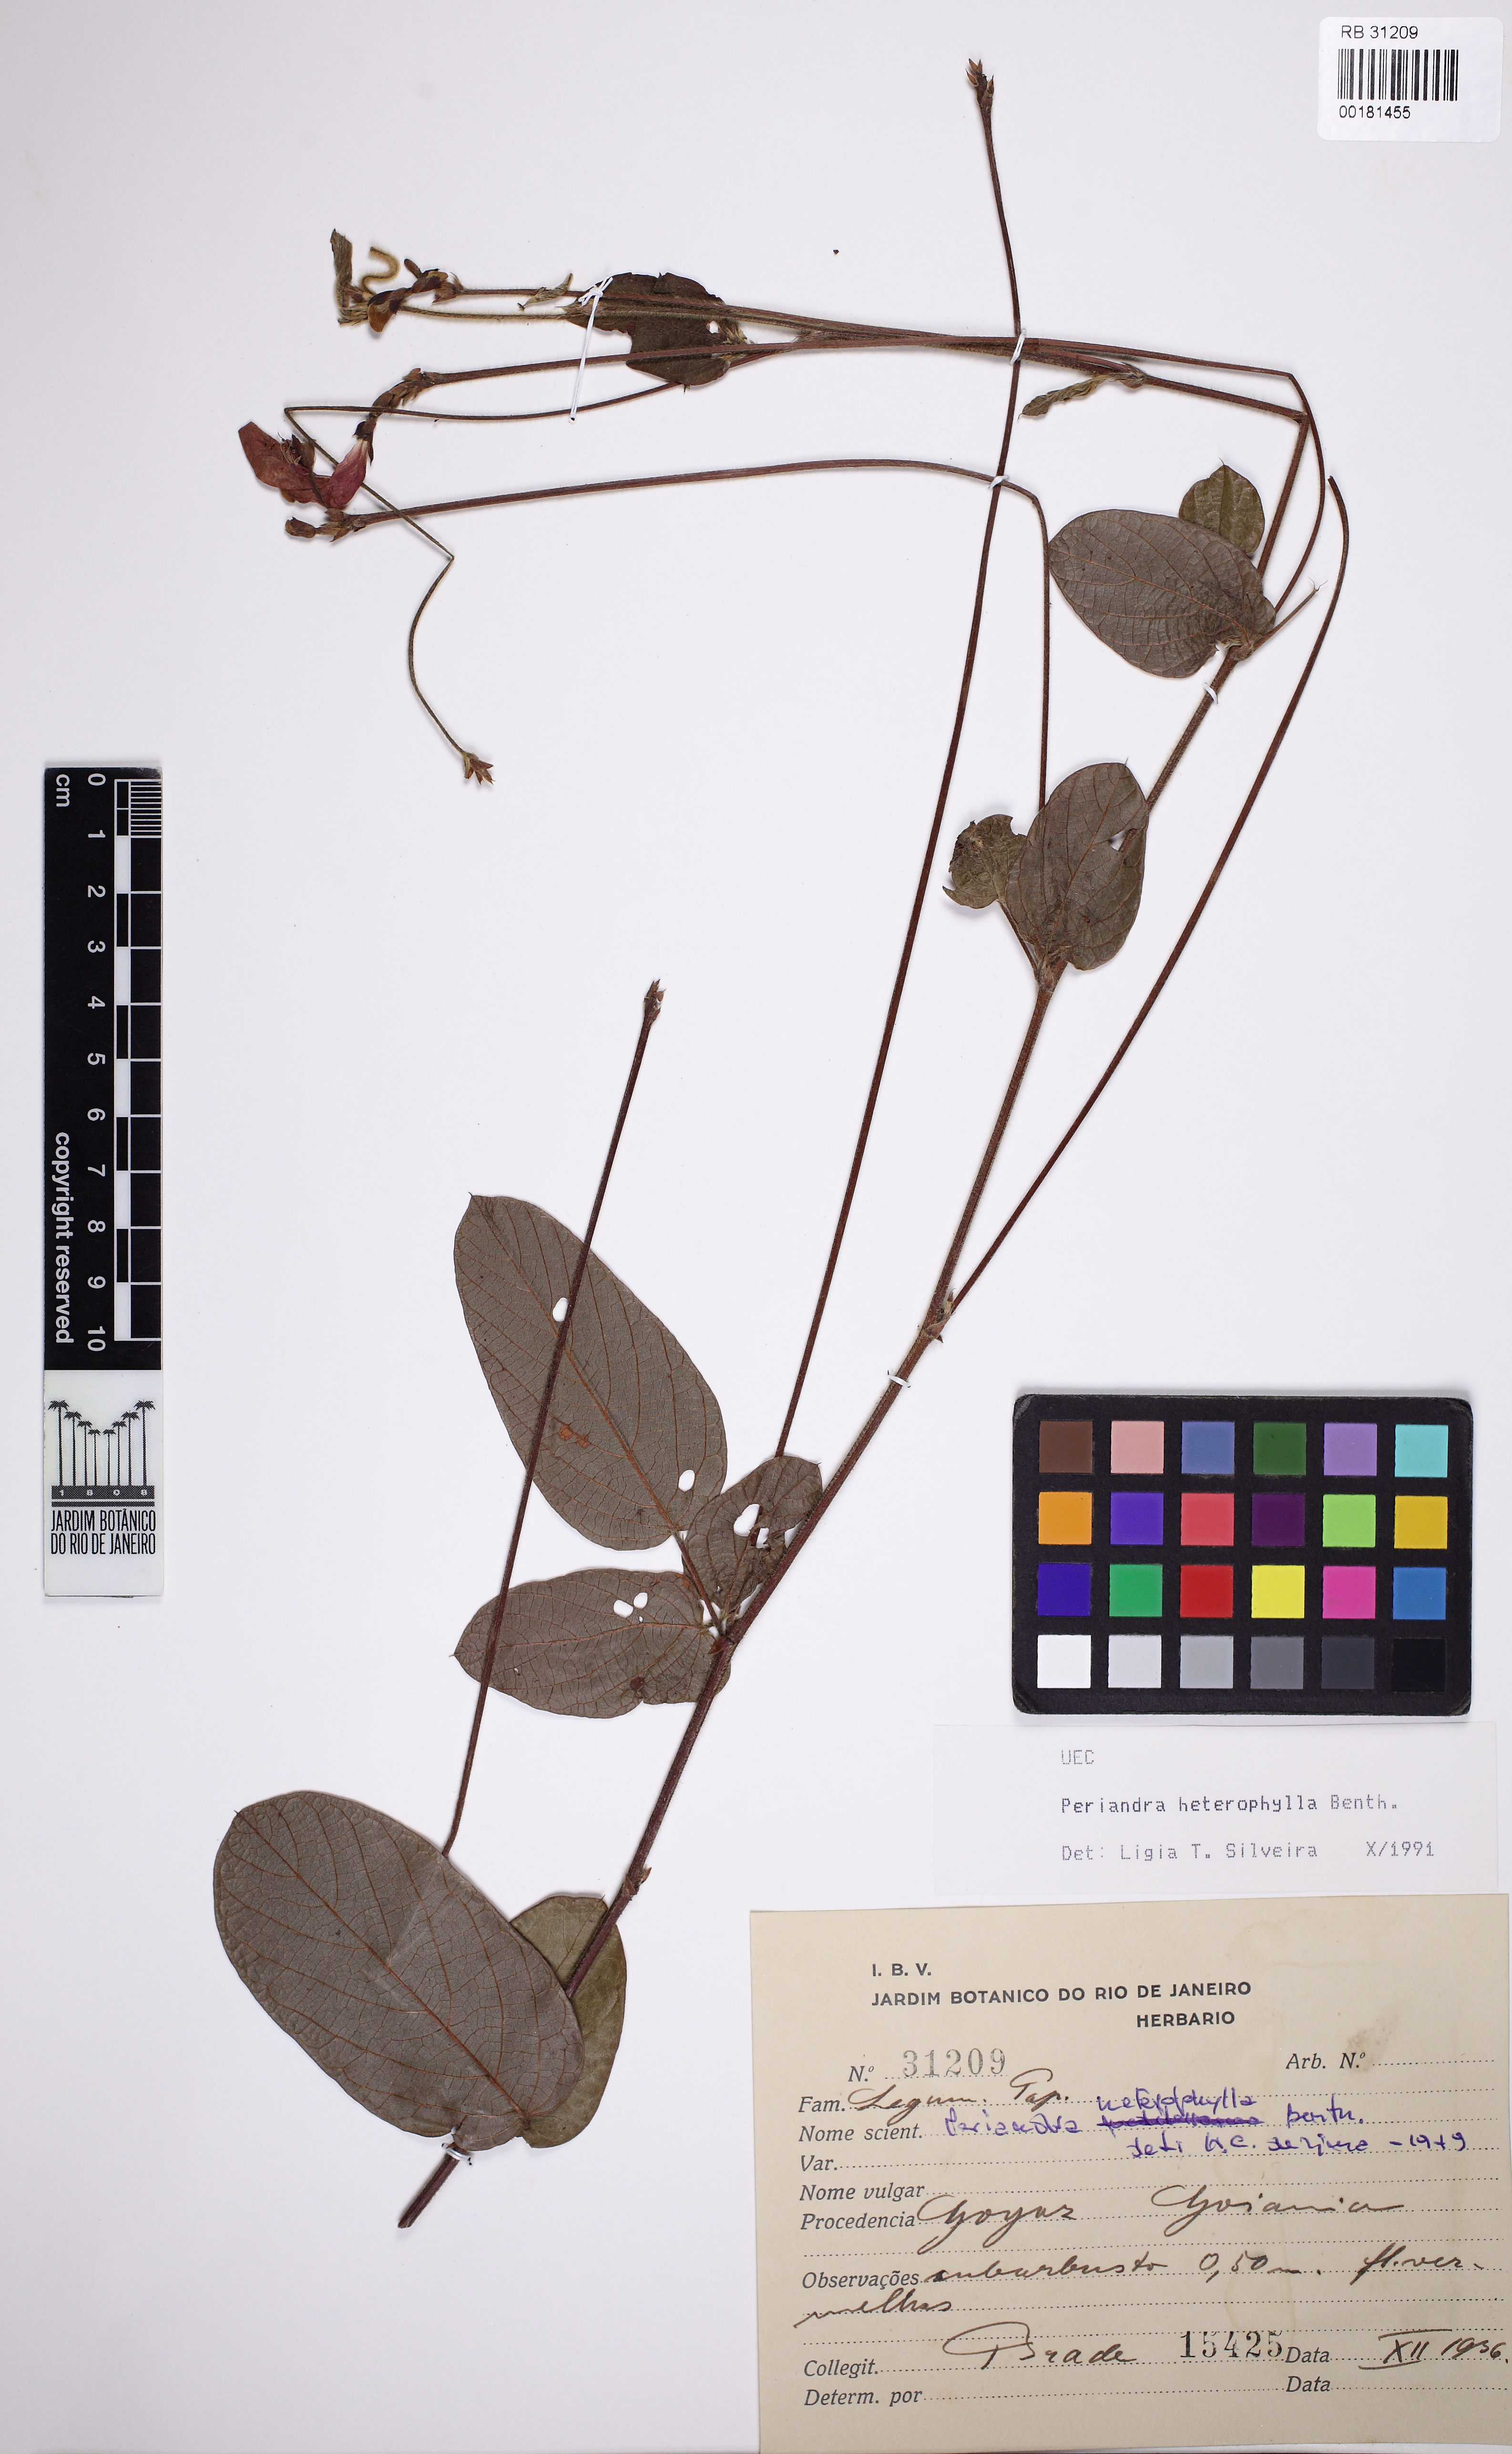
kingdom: Plantae
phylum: Tracheophyta
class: Magnoliopsida
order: Fabales
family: Fabaceae
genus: Periandra
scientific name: Periandra heterophylla
